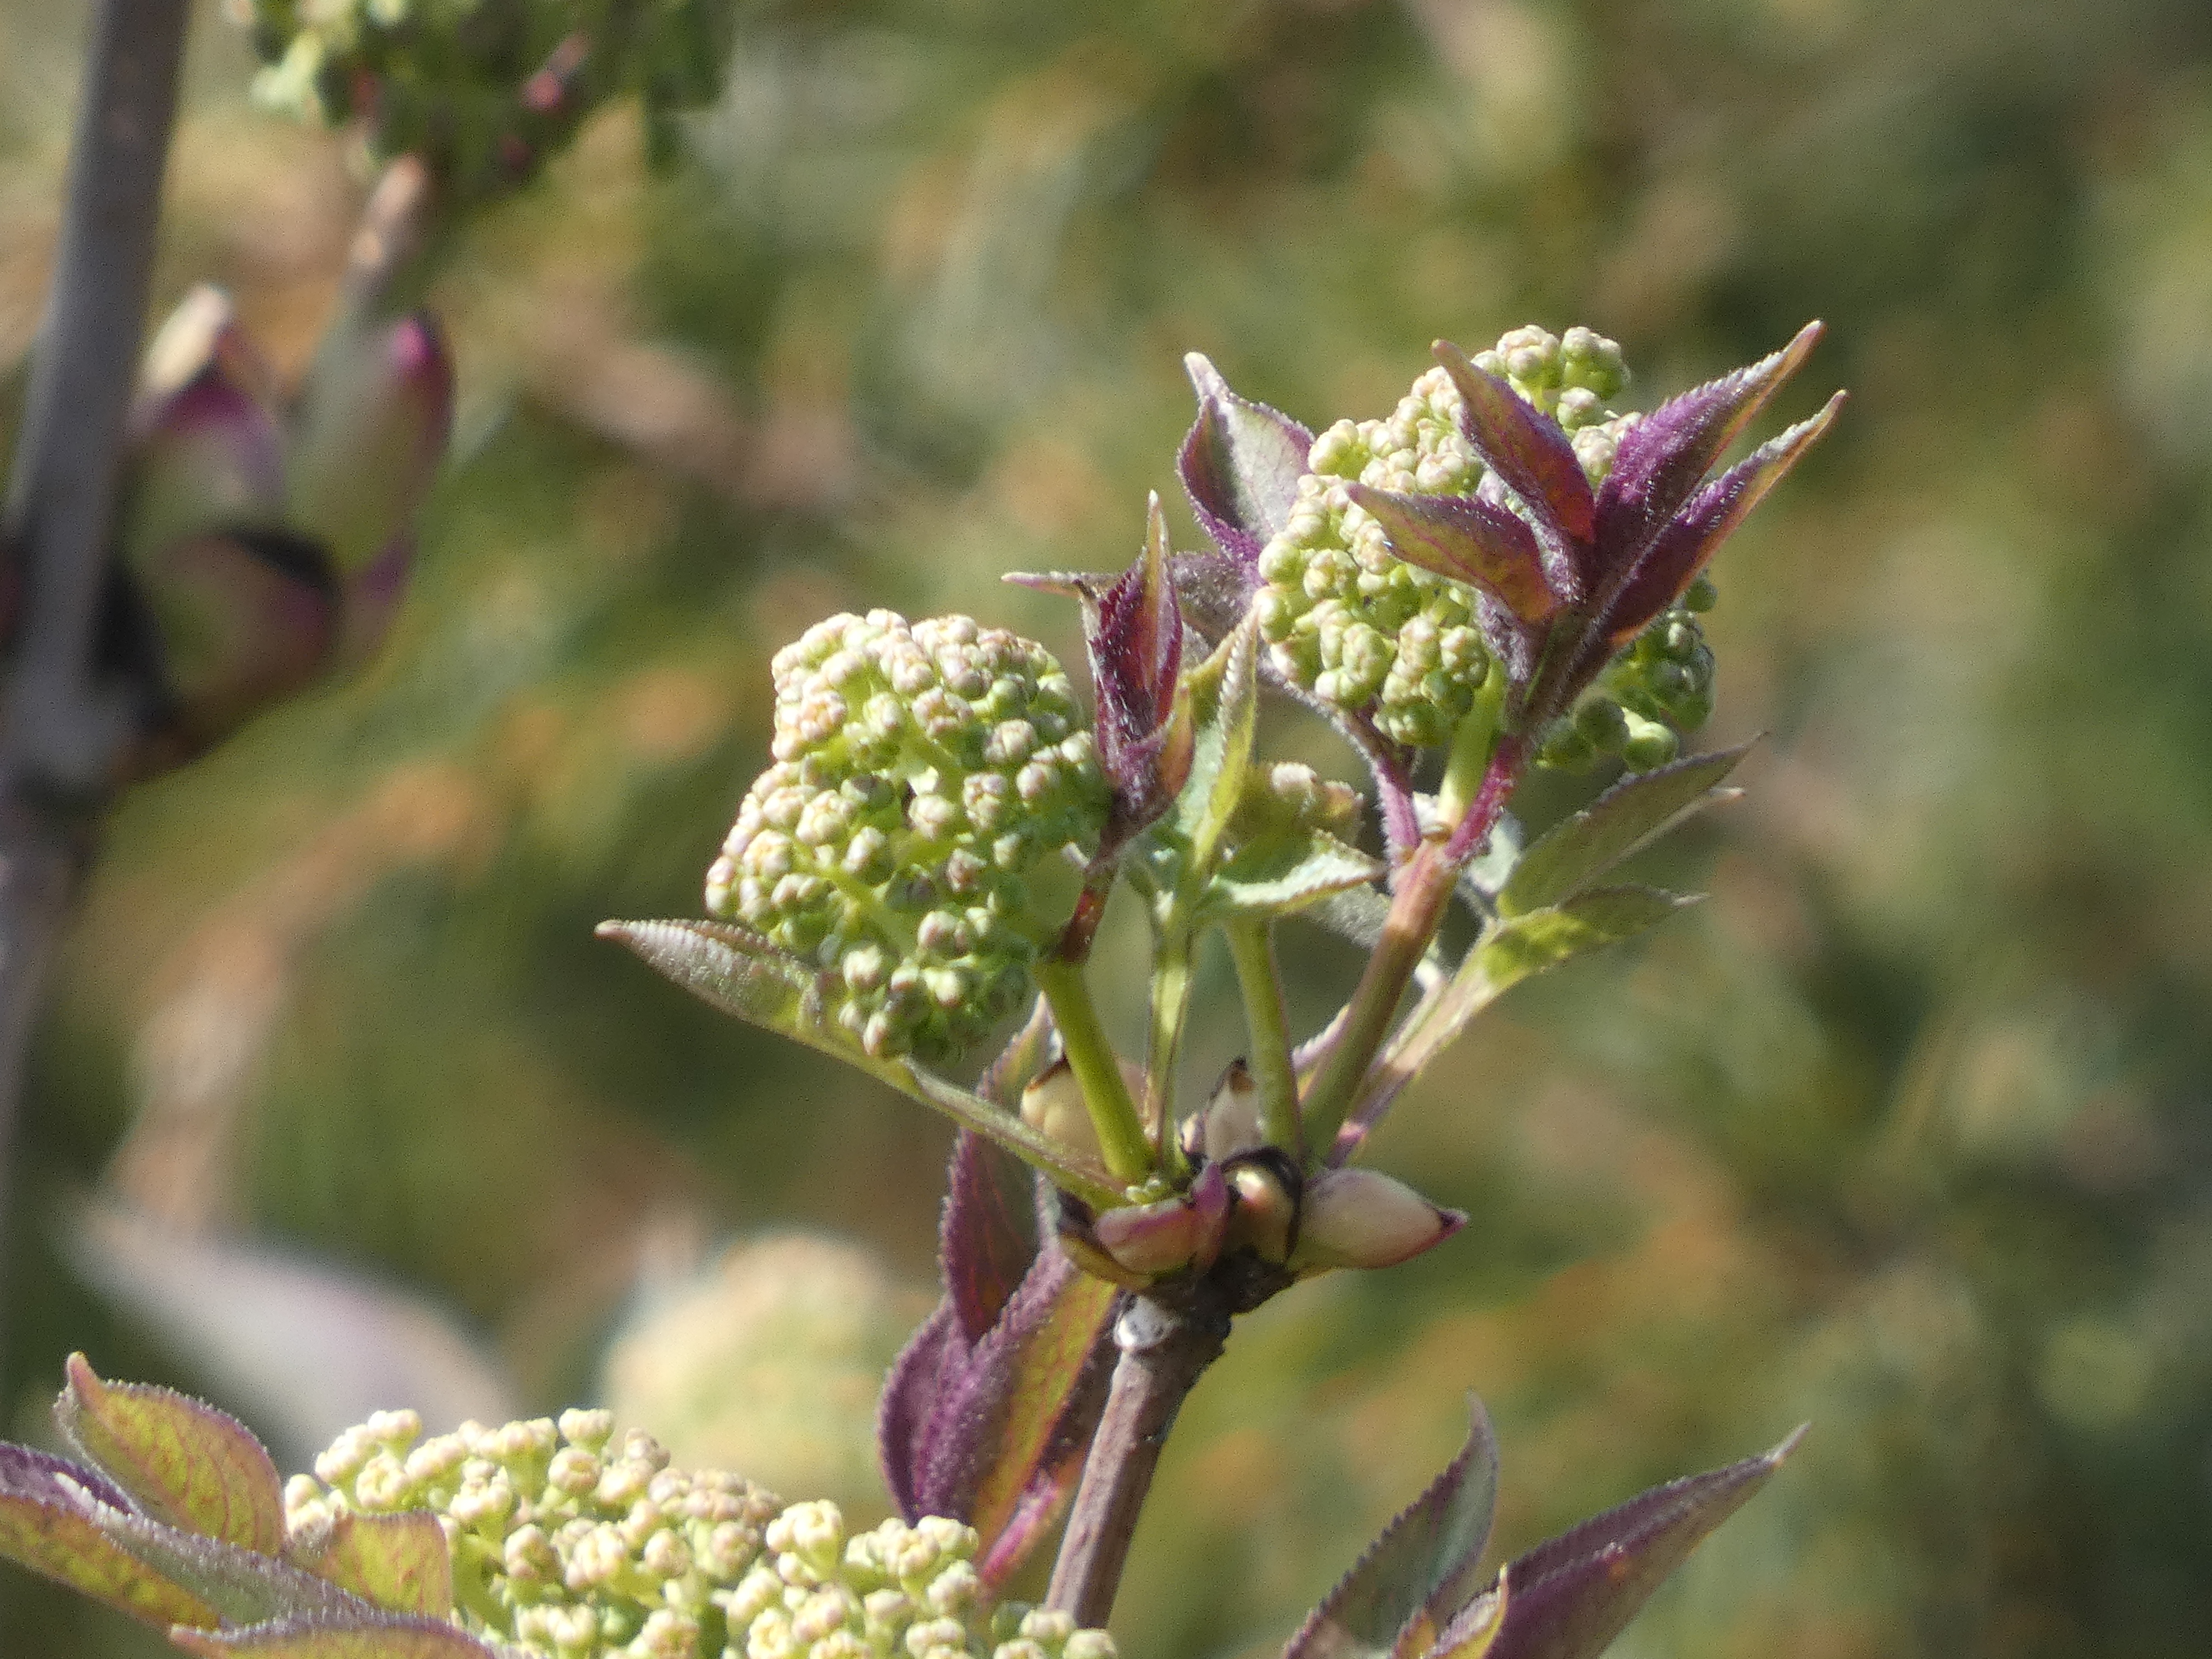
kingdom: Plantae
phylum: Tracheophyta
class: Magnoliopsida
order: Dipsacales
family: Viburnaceae
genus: Sambucus
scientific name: Sambucus racemosa
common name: Drue-hyld
